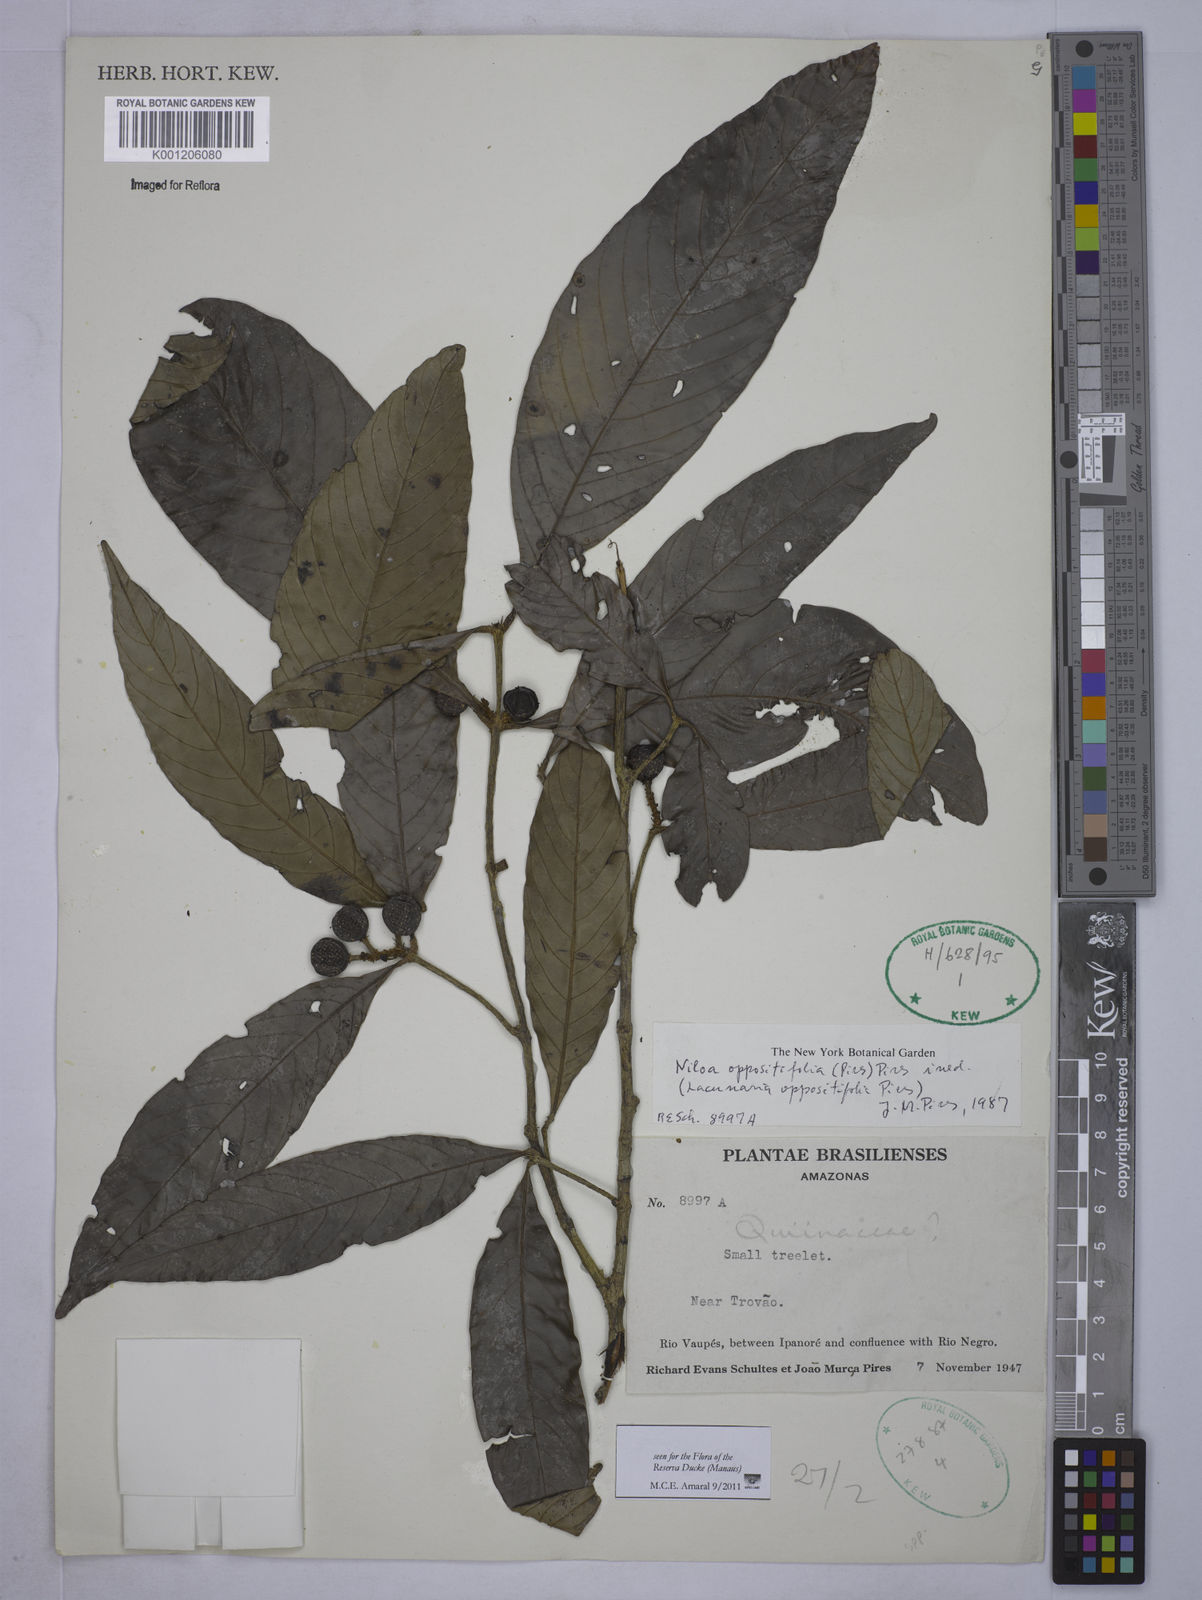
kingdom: Plantae
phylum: Tracheophyta
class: Magnoliopsida
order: Malpighiales
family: Quiinaceae
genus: Lacunaria
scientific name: Lacunaria oppositifolia
